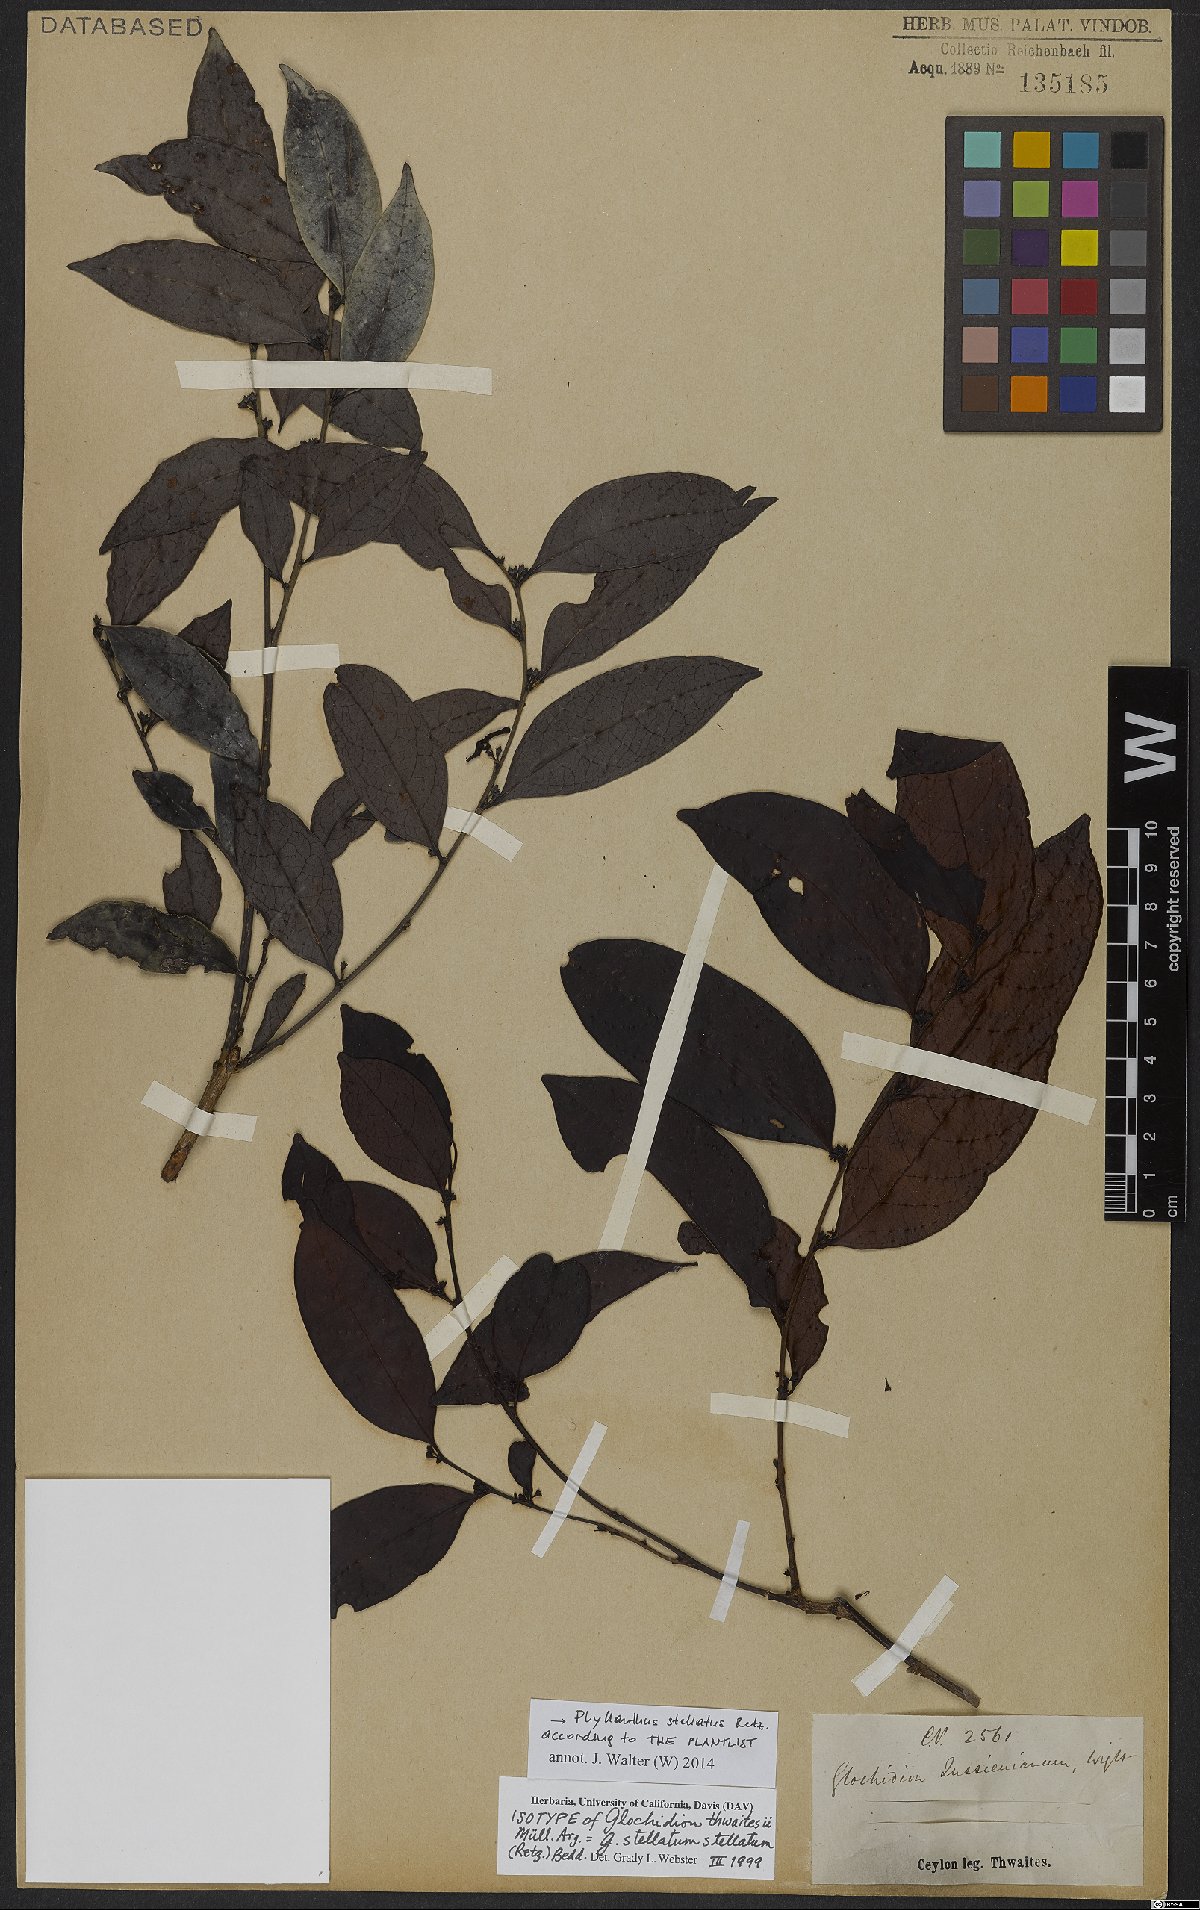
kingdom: Plantae
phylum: Tracheophyta
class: Magnoliopsida
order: Malpighiales
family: Phyllanthaceae
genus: Glochidion
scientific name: Glochidion stellatum
